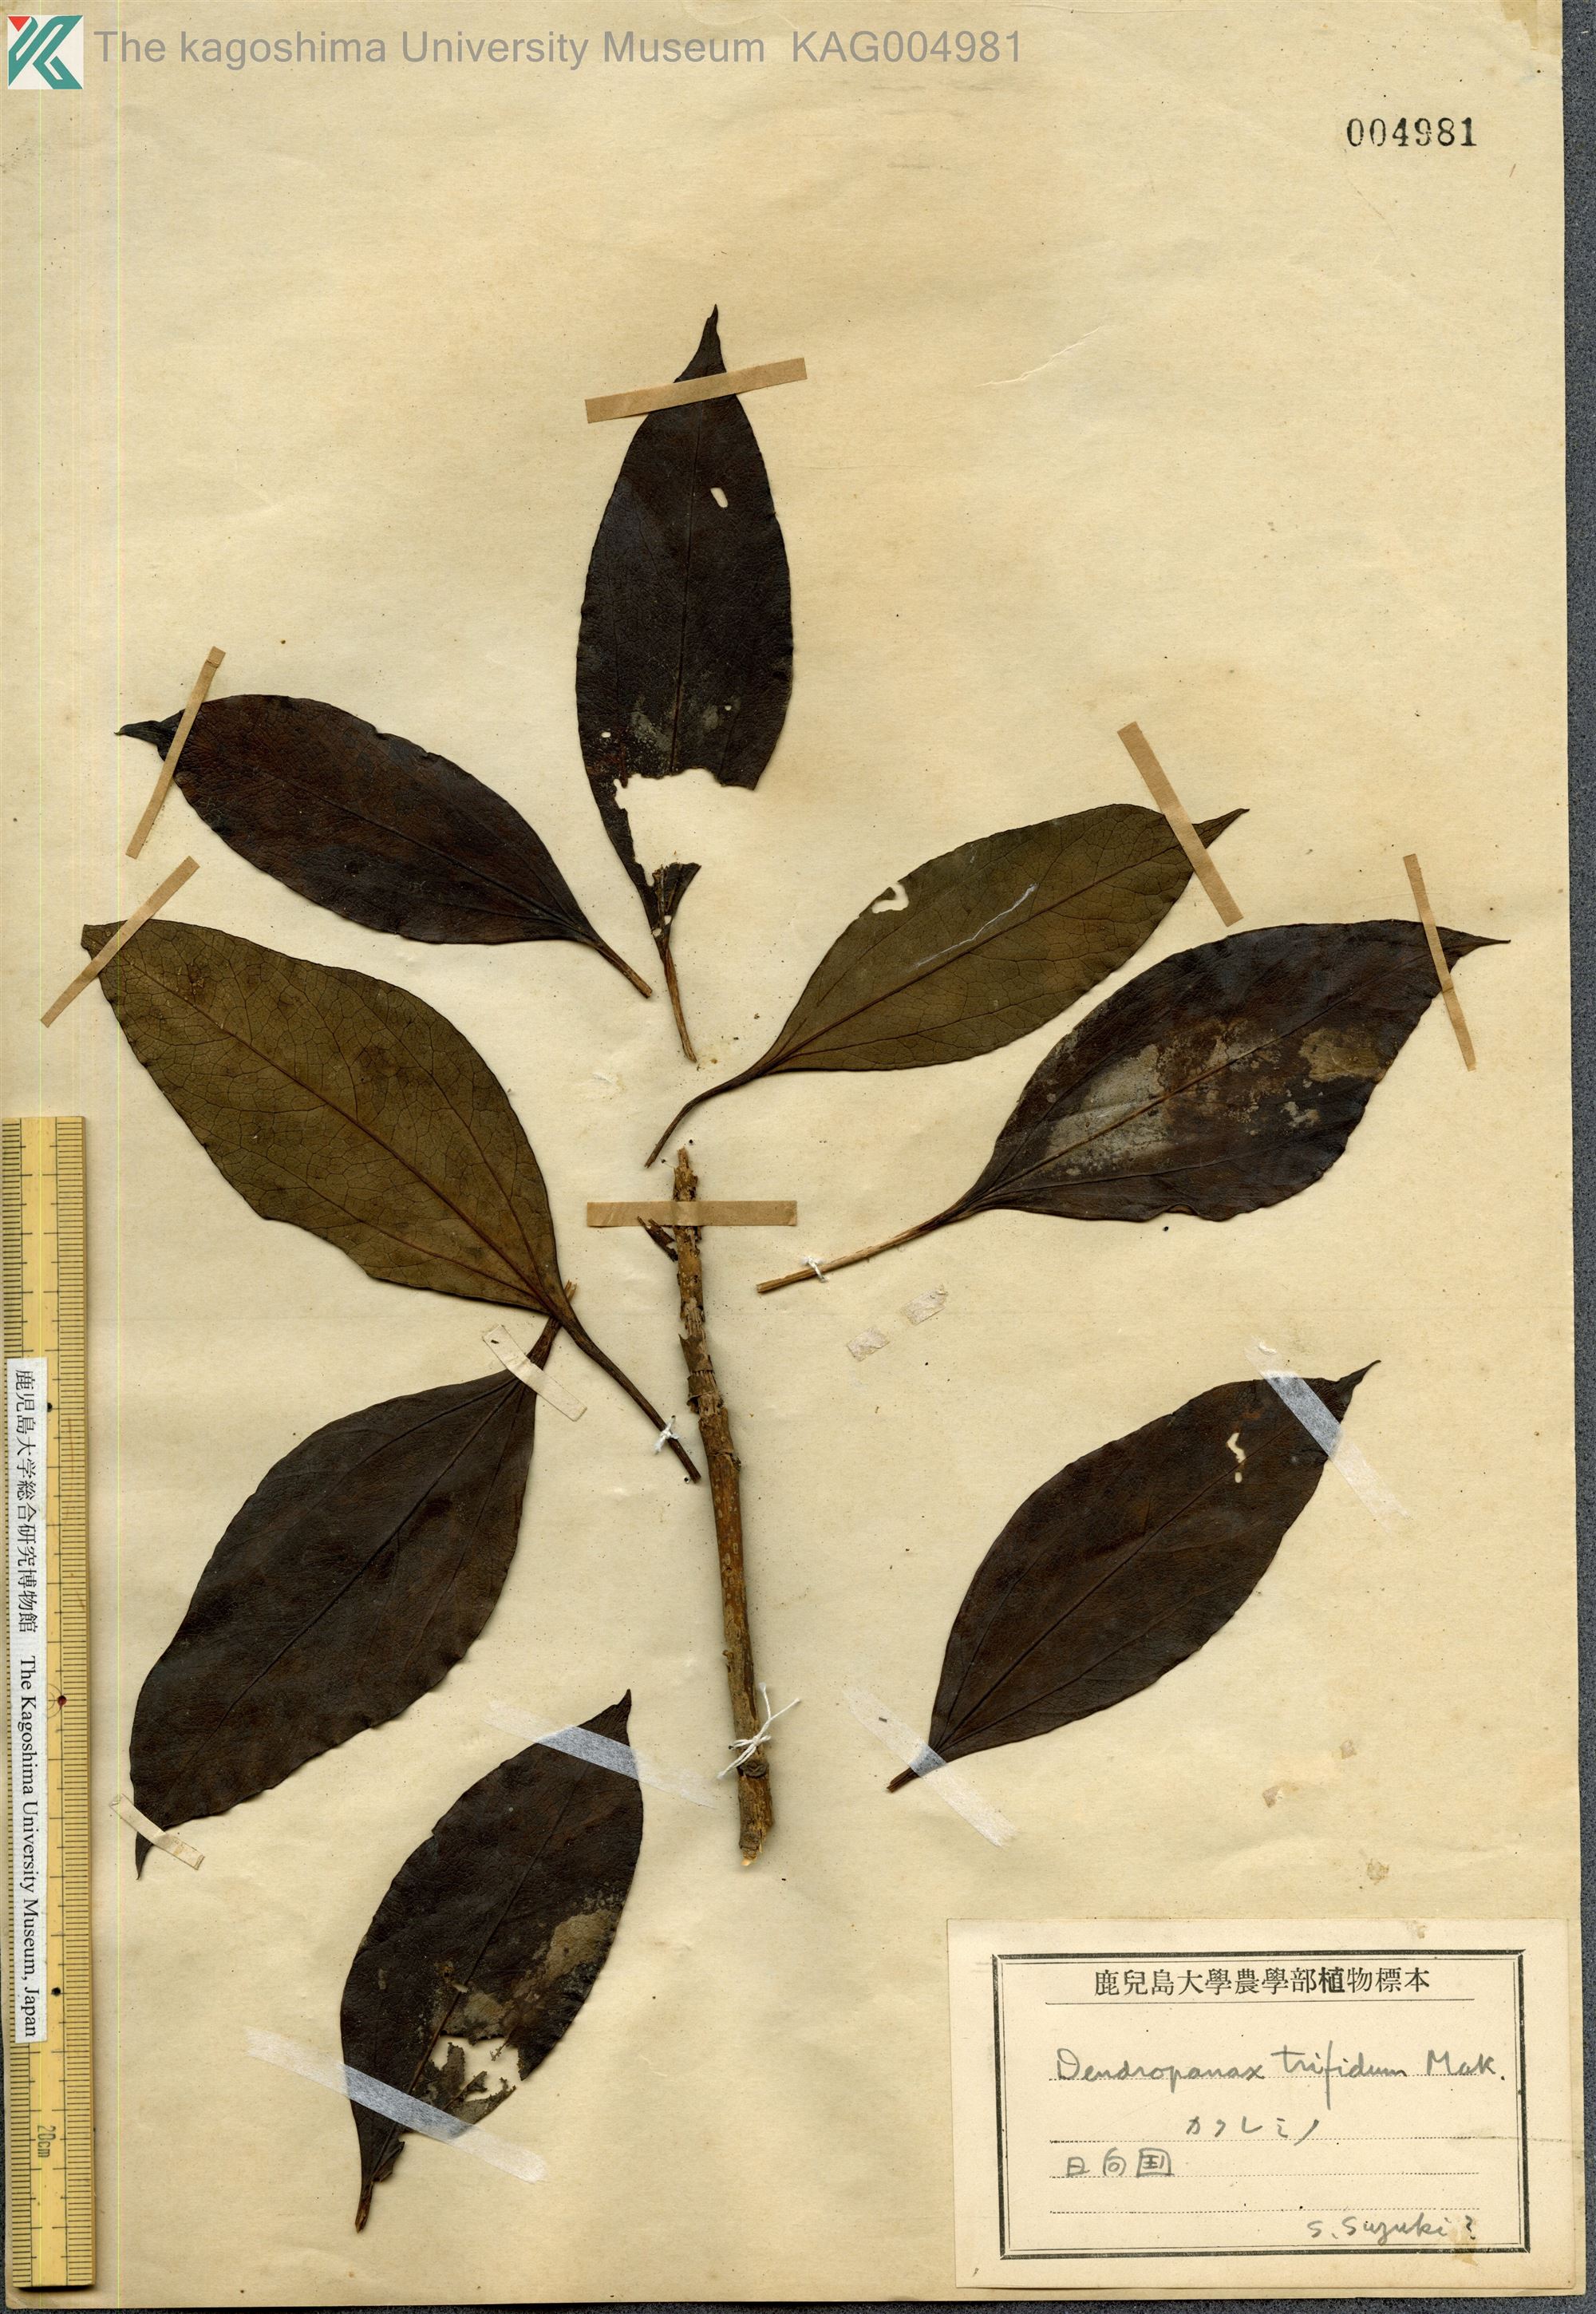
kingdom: Plantae
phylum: Tracheophyta
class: Magnoliopsida
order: Apiales
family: Araliaceae
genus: Dendropanax
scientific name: Dendropanax trifidus
